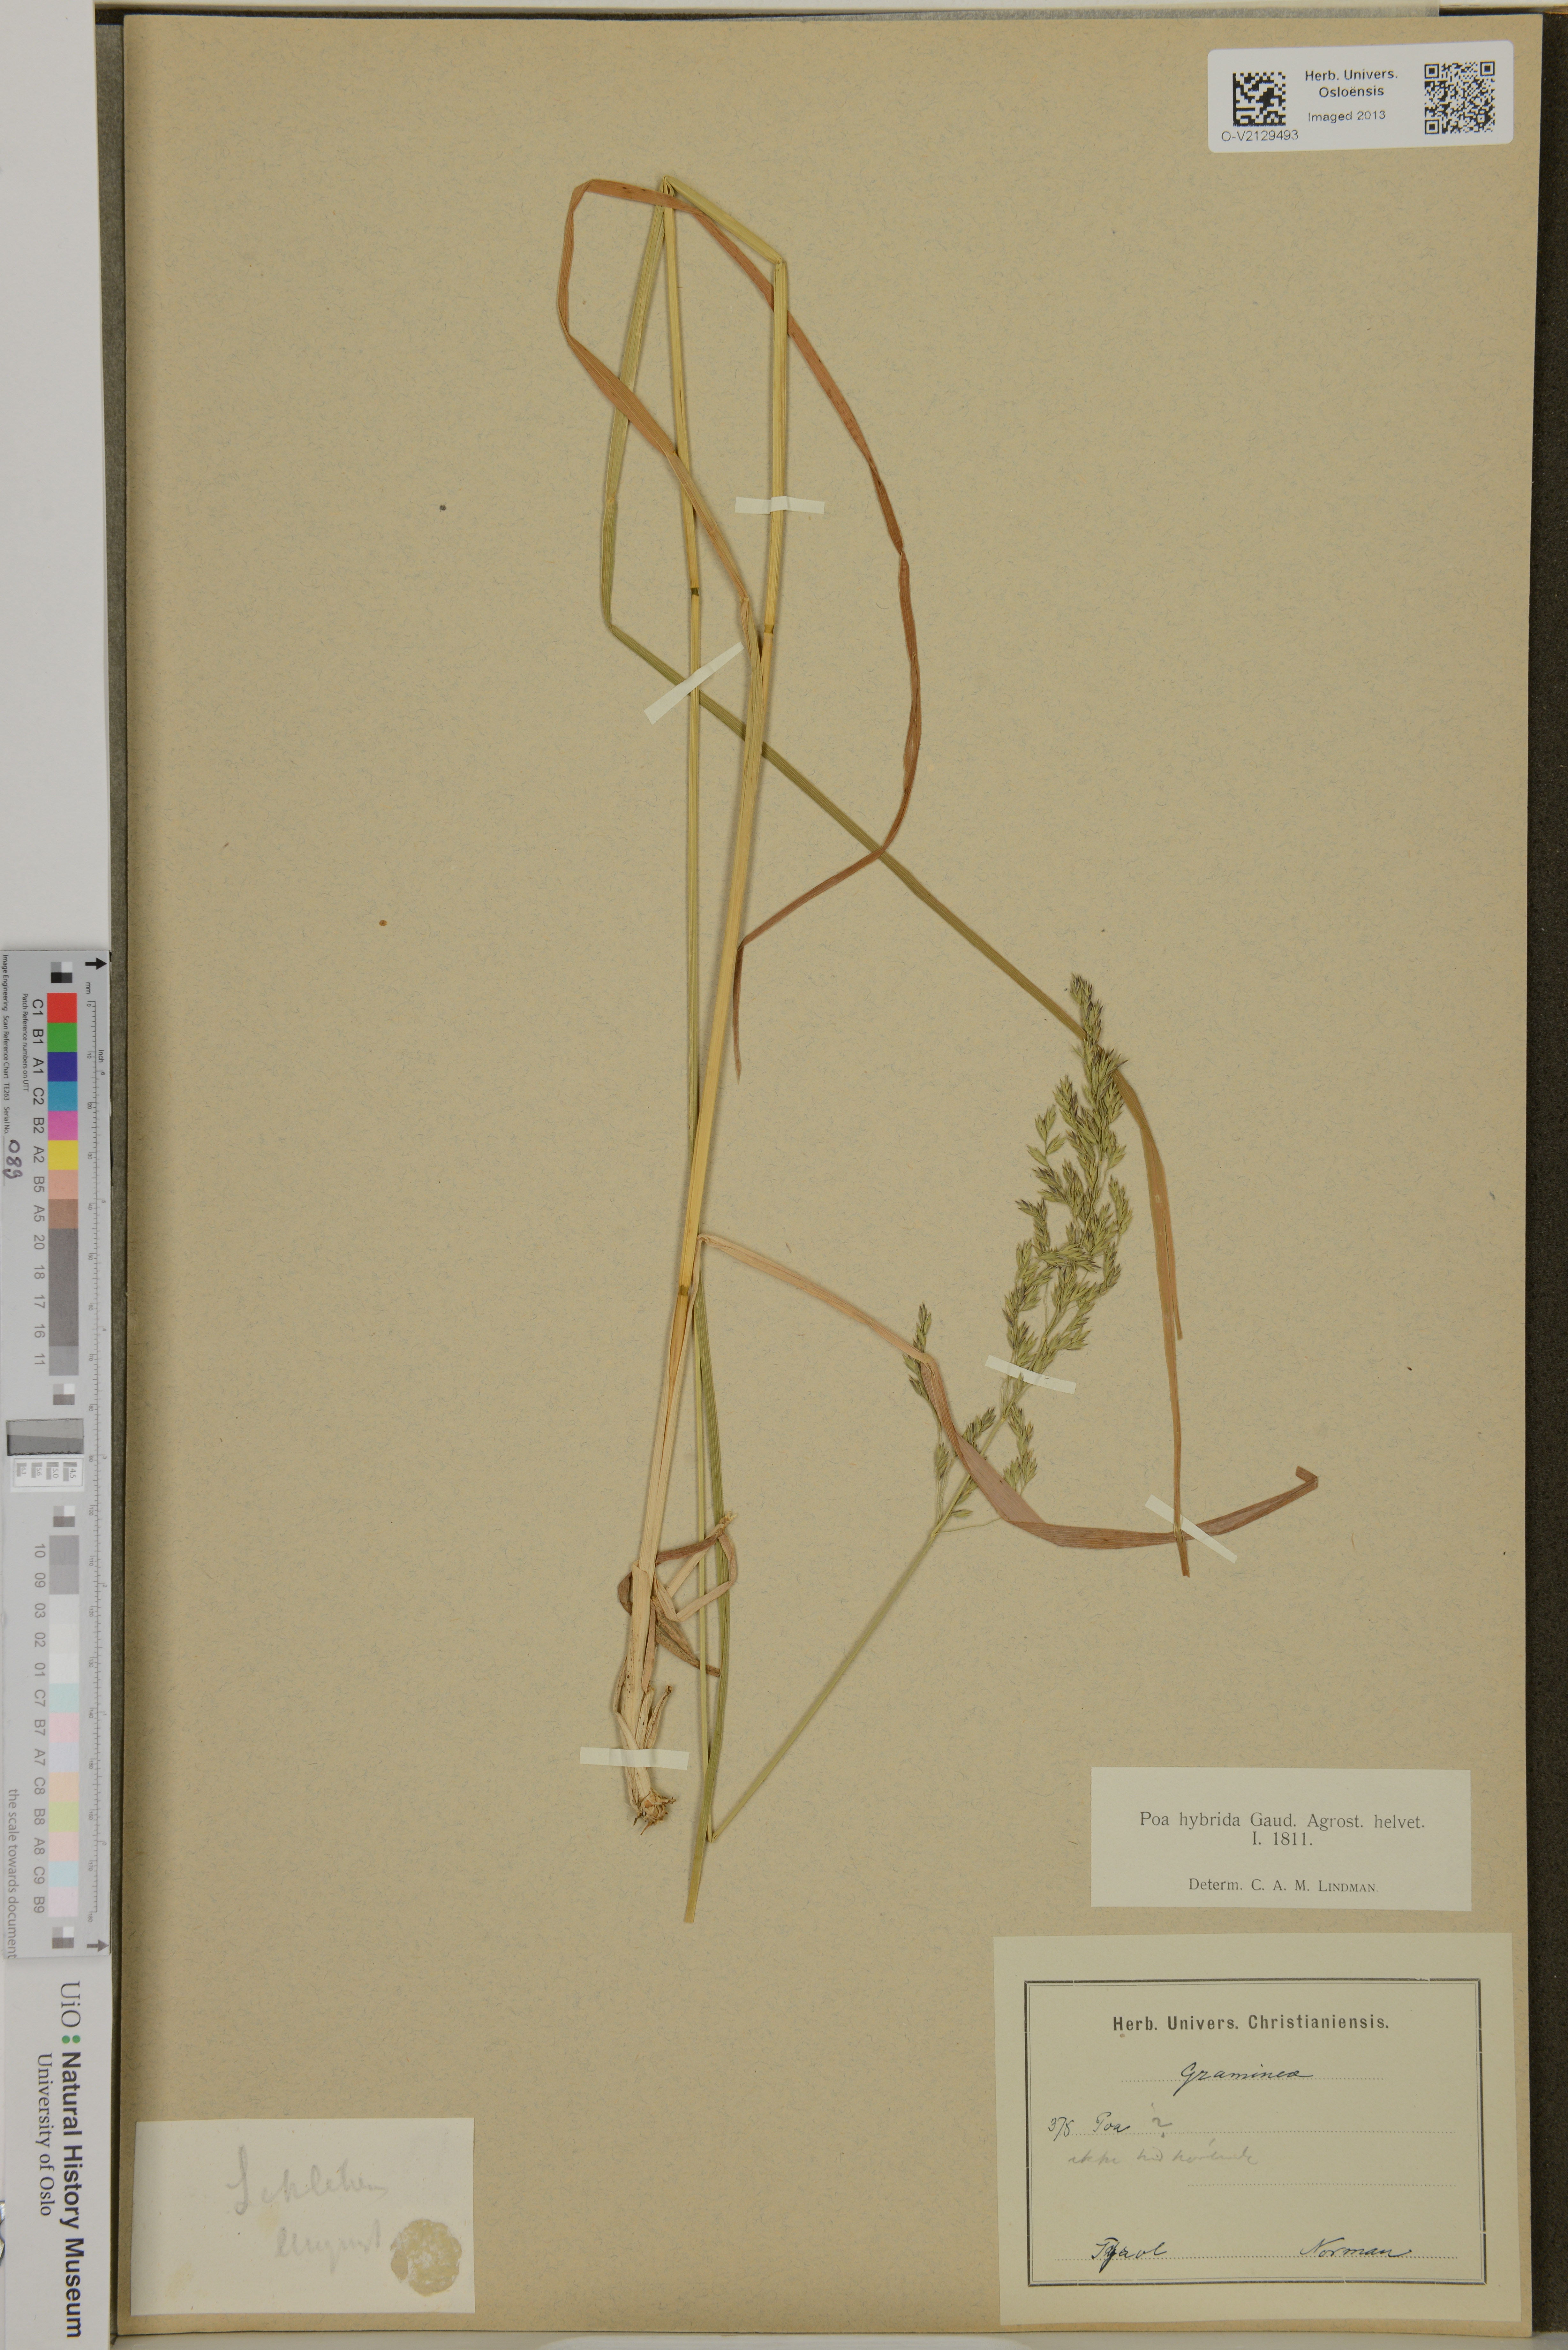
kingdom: Plantae
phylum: Tracheophyta
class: Liliopsida
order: Poales
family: Poaceae
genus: Poa
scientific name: Poa hybrida
